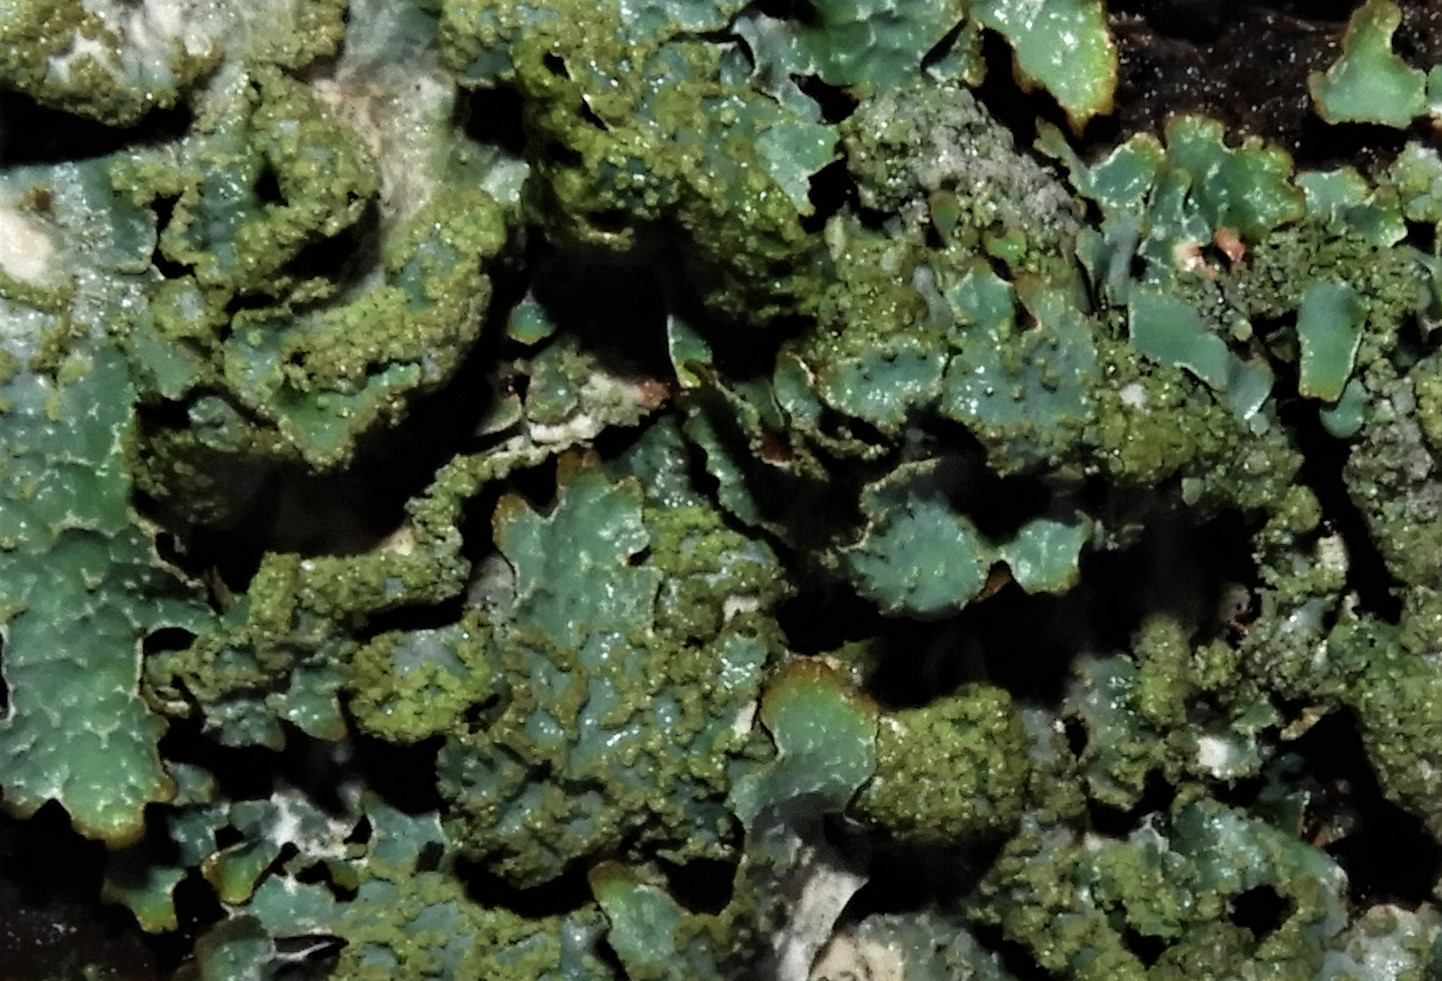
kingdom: Fungi
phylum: Ascomycota
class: Lecanoromycetes
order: Lecanorales
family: Parmeliaceae
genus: Parmelia
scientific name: Parmelia sulcata
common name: rynket skållav
